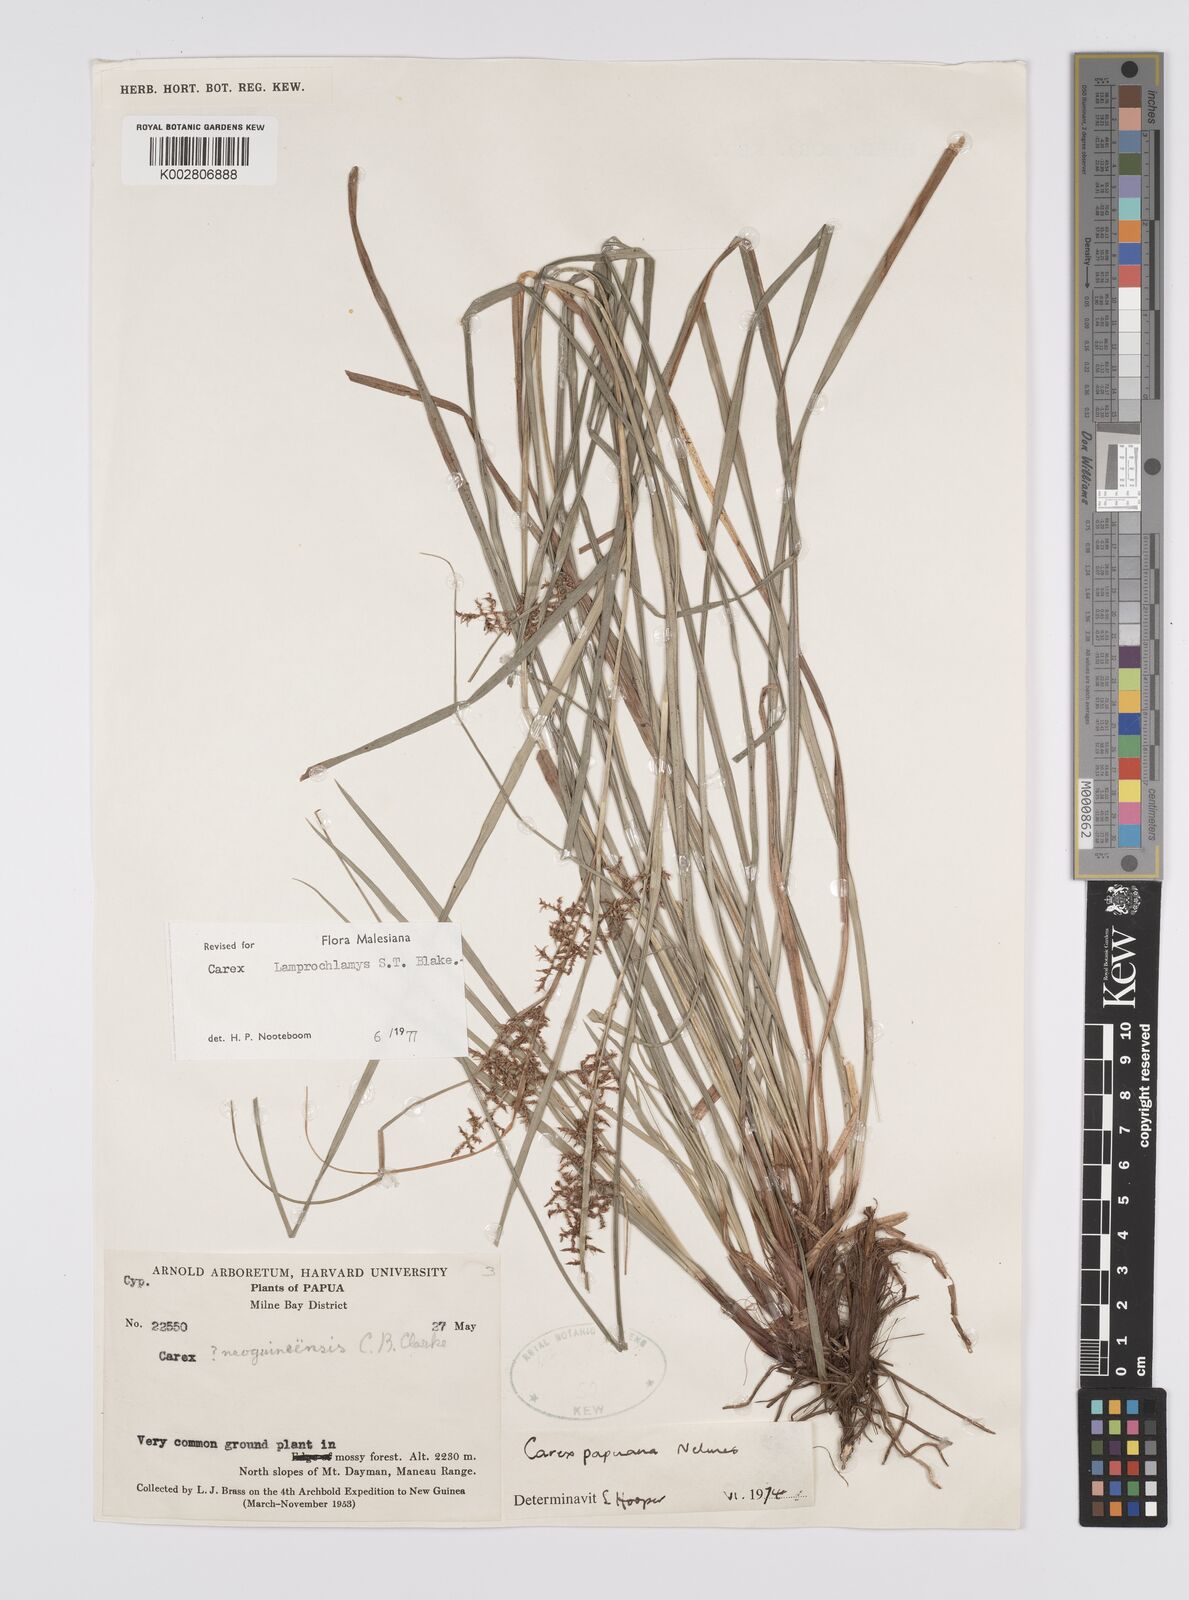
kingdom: Plantae
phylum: Tracheophyta
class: Liliopsida
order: Poales
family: Cyperaceae
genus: Carex
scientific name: Carex lamprochlamys
